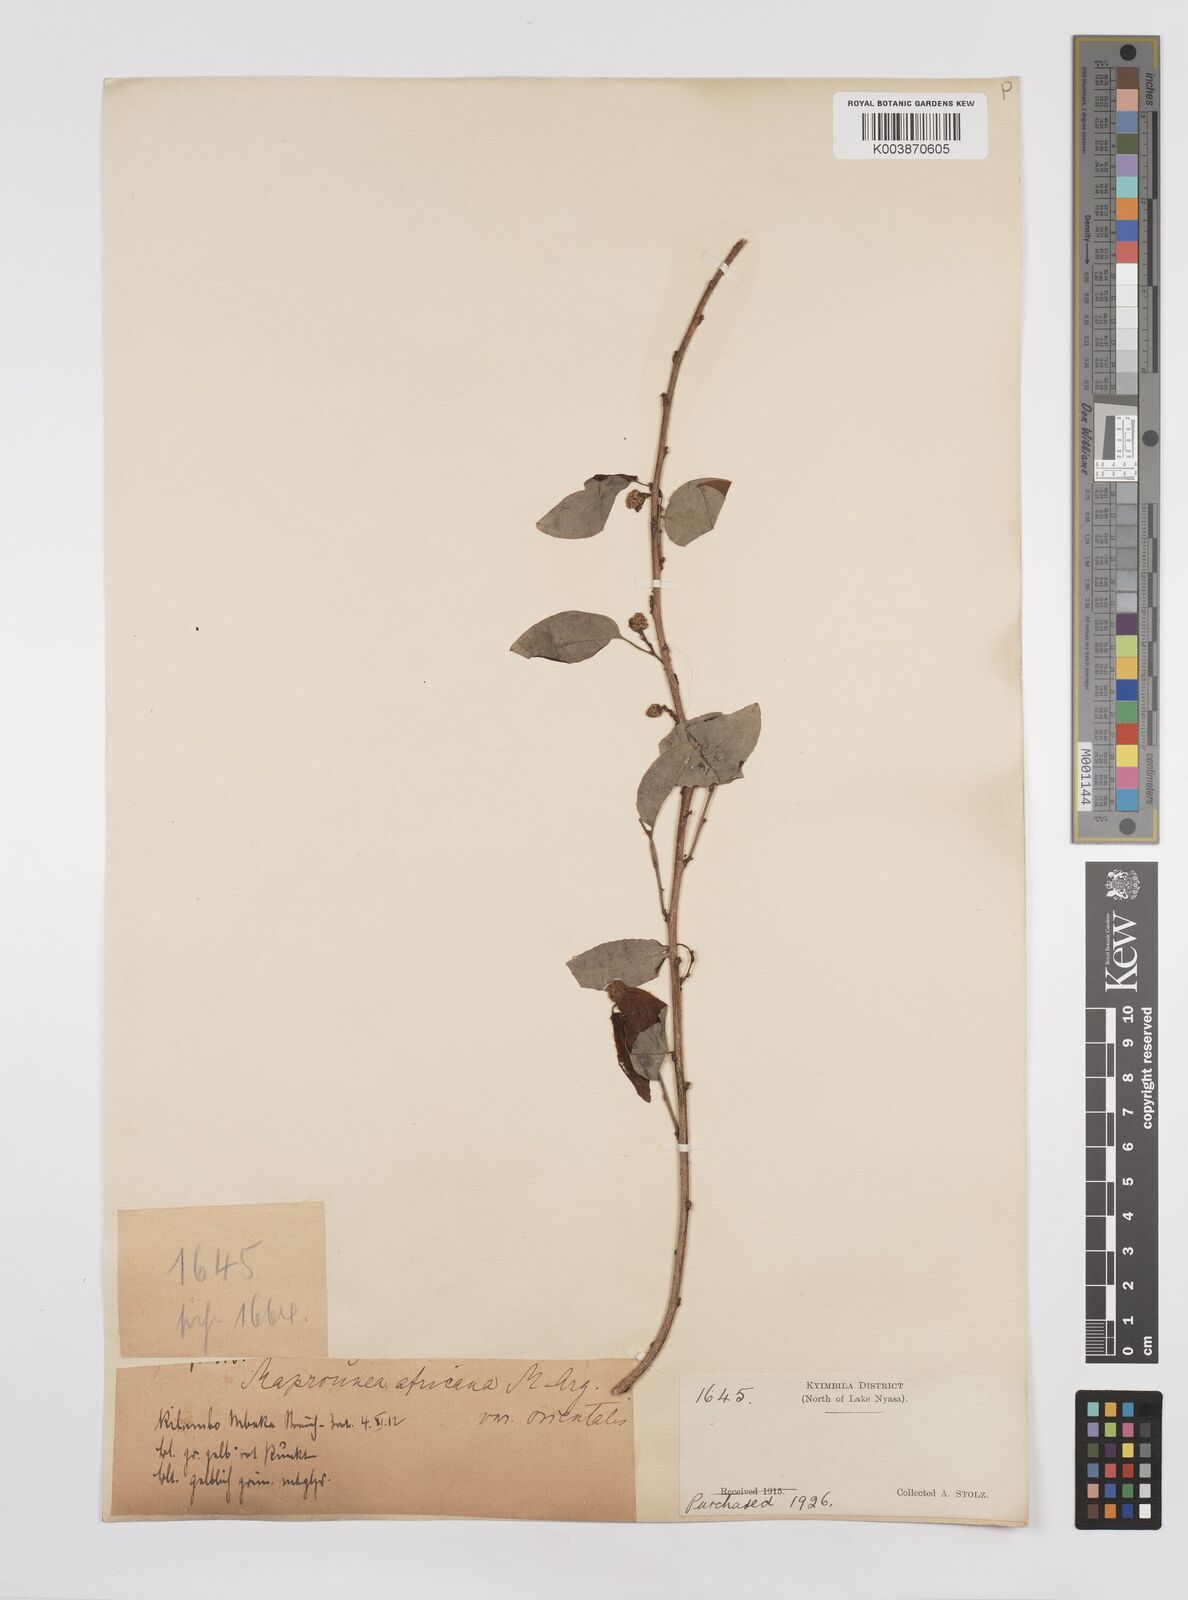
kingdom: Plantae
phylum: Tracheophyta
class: Magnoliopsida
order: Malpighiales
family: Euphorbiaceae
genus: Maprounea
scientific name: Maprounea africana
